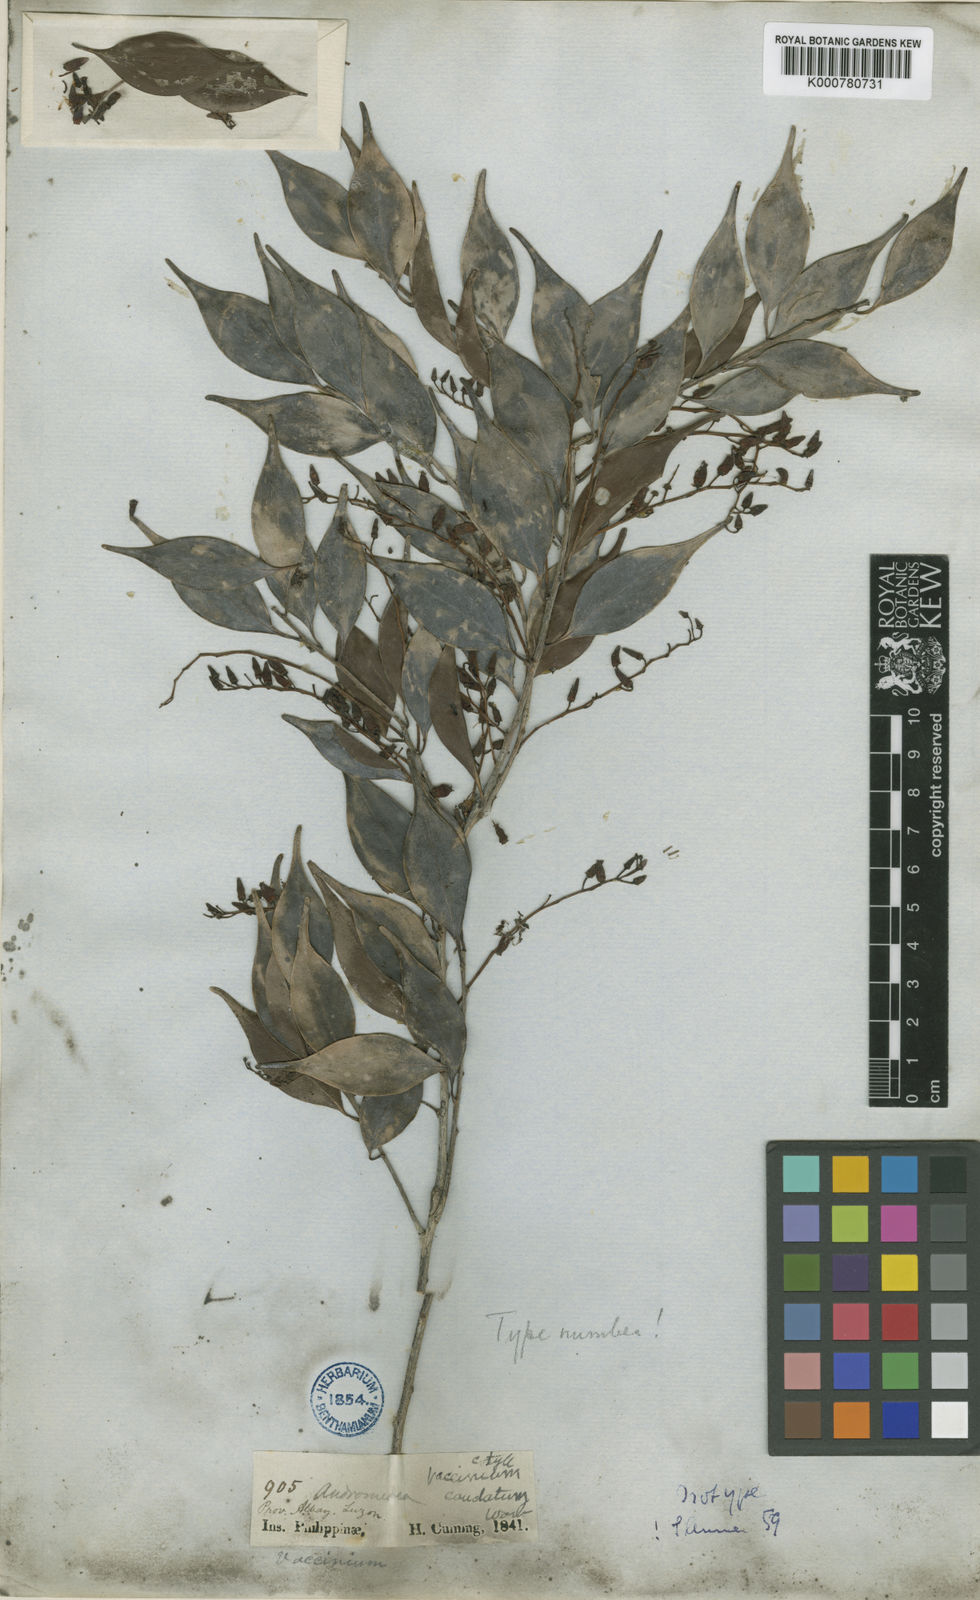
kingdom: Plantae
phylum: Tracheophyta
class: Magnoliopsida
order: Ericales
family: Ericaceae
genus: Vaccinium
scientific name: Vaccinium caudatum
